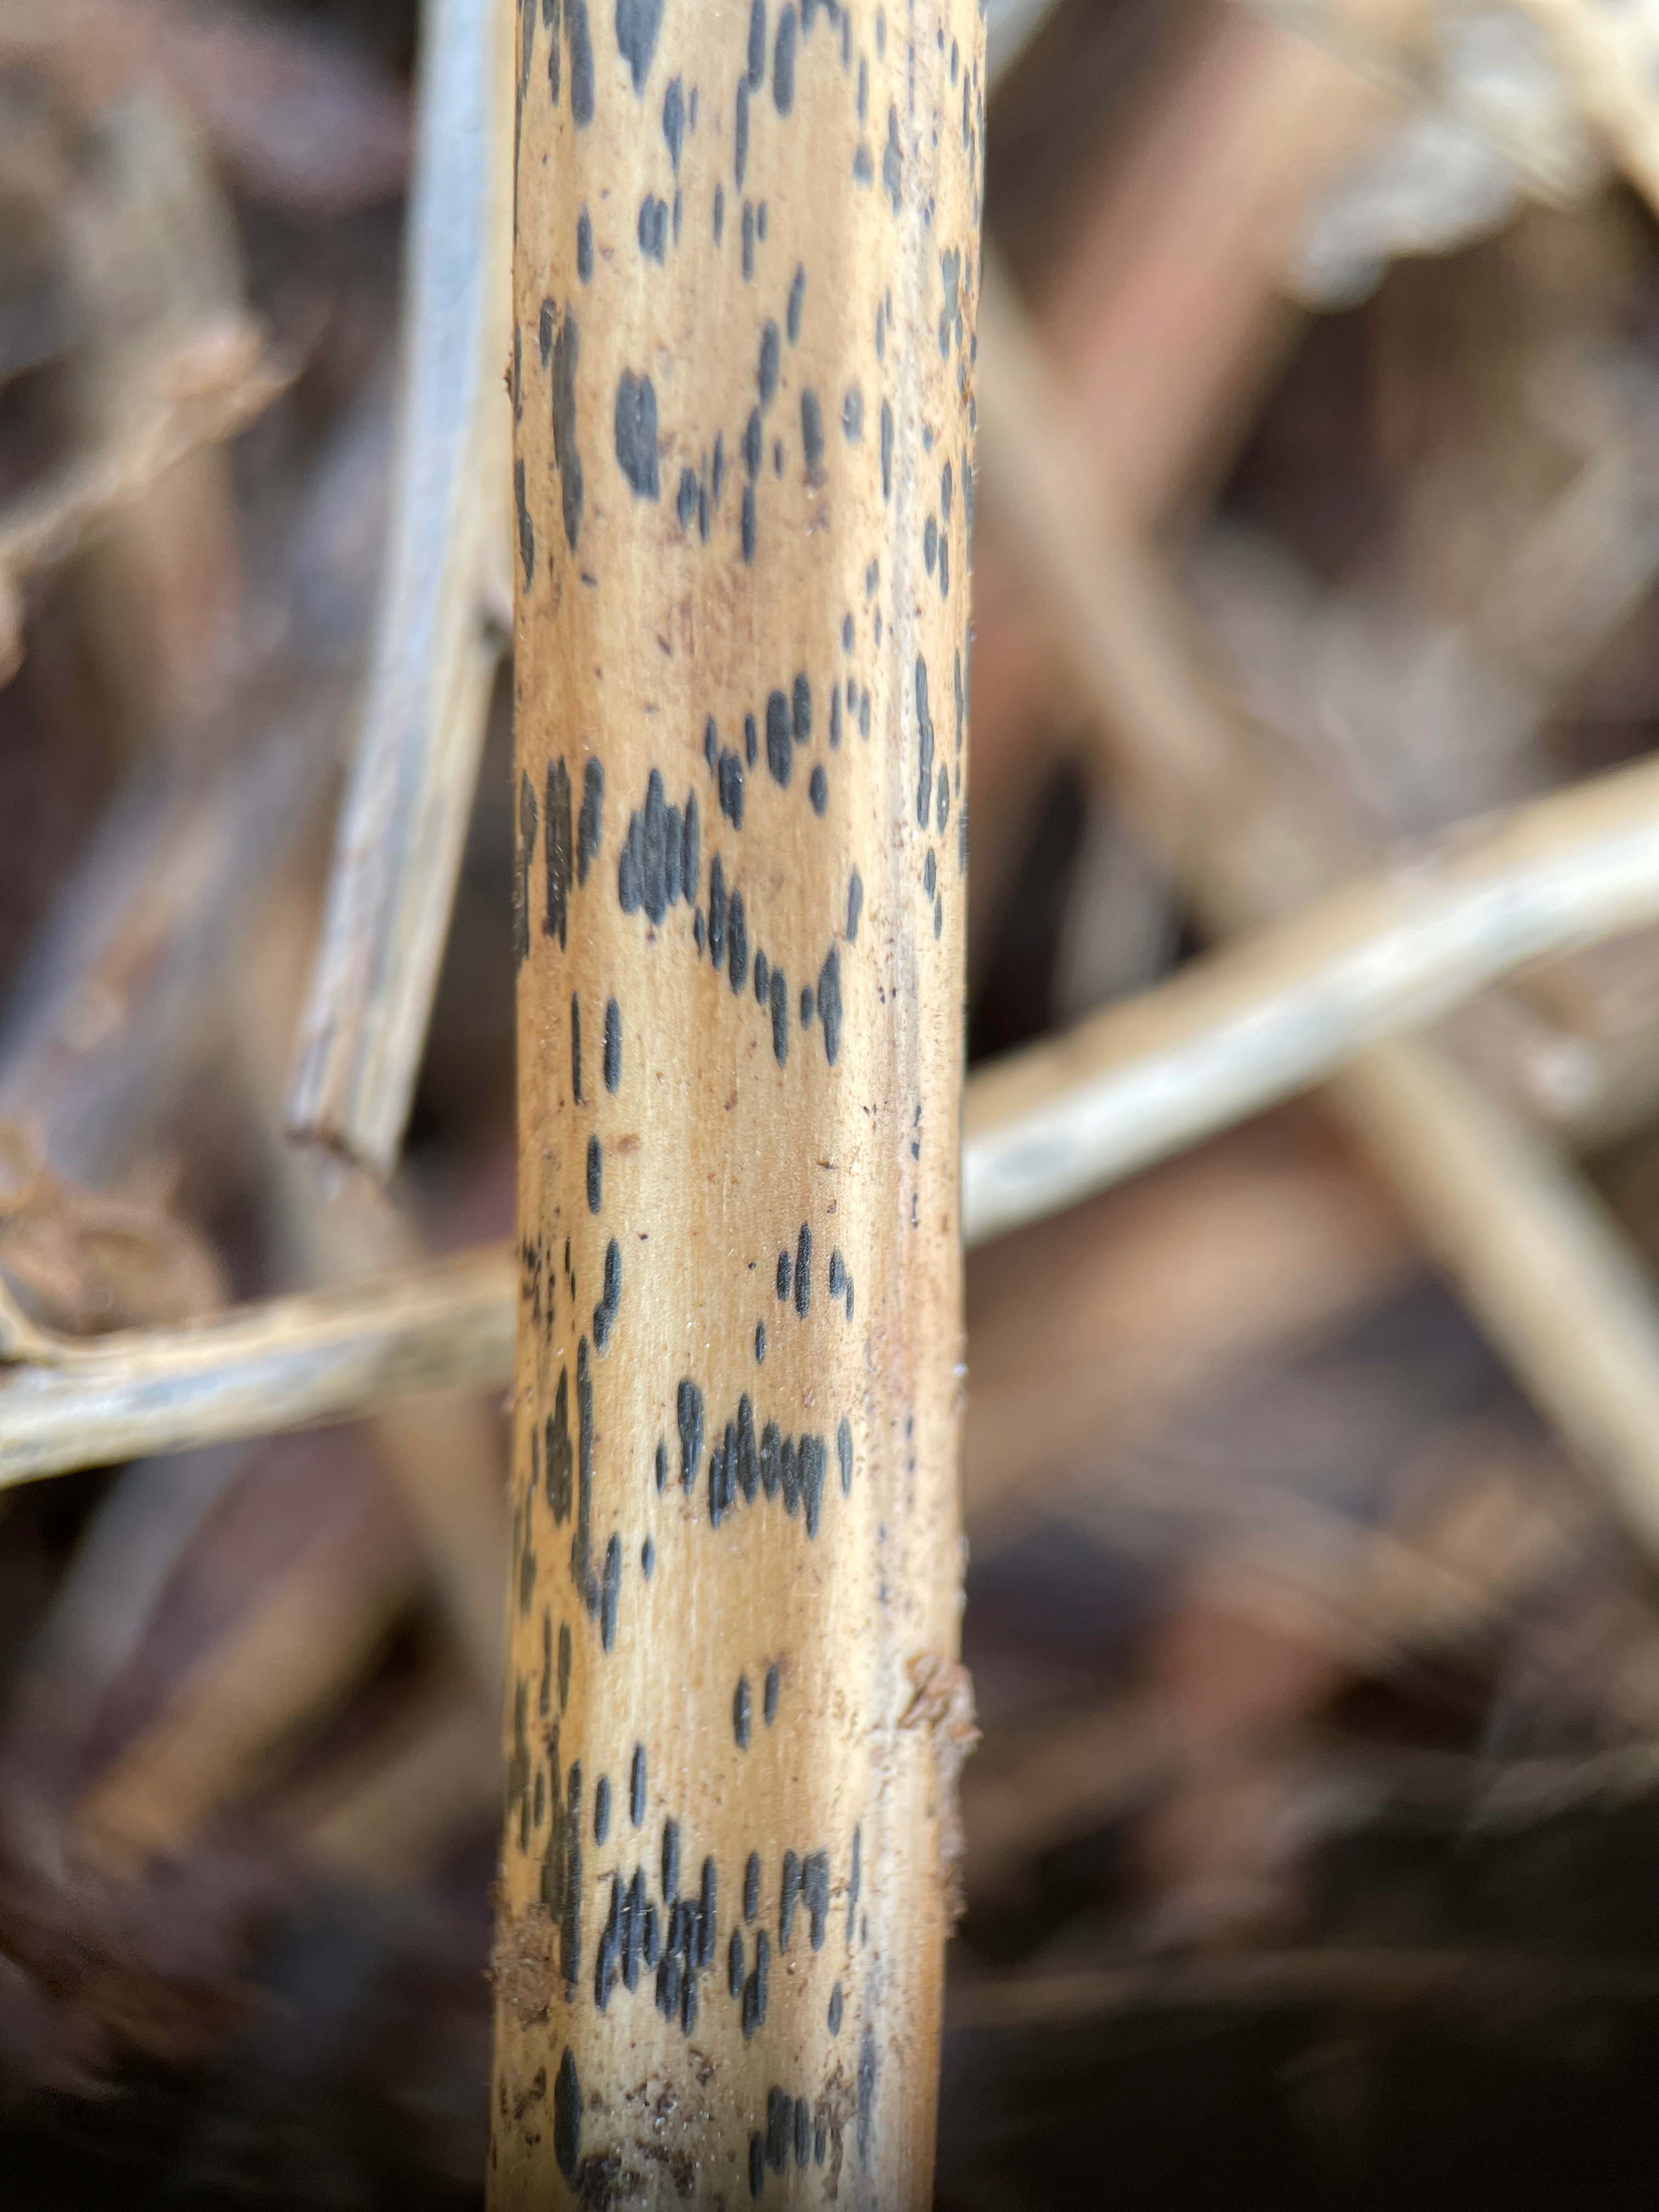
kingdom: Fungi
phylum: Ascomycota
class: Dothideomycetes
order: Pleosporales
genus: Rhopographus
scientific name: Rhopographus filicinus
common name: Bracken map
